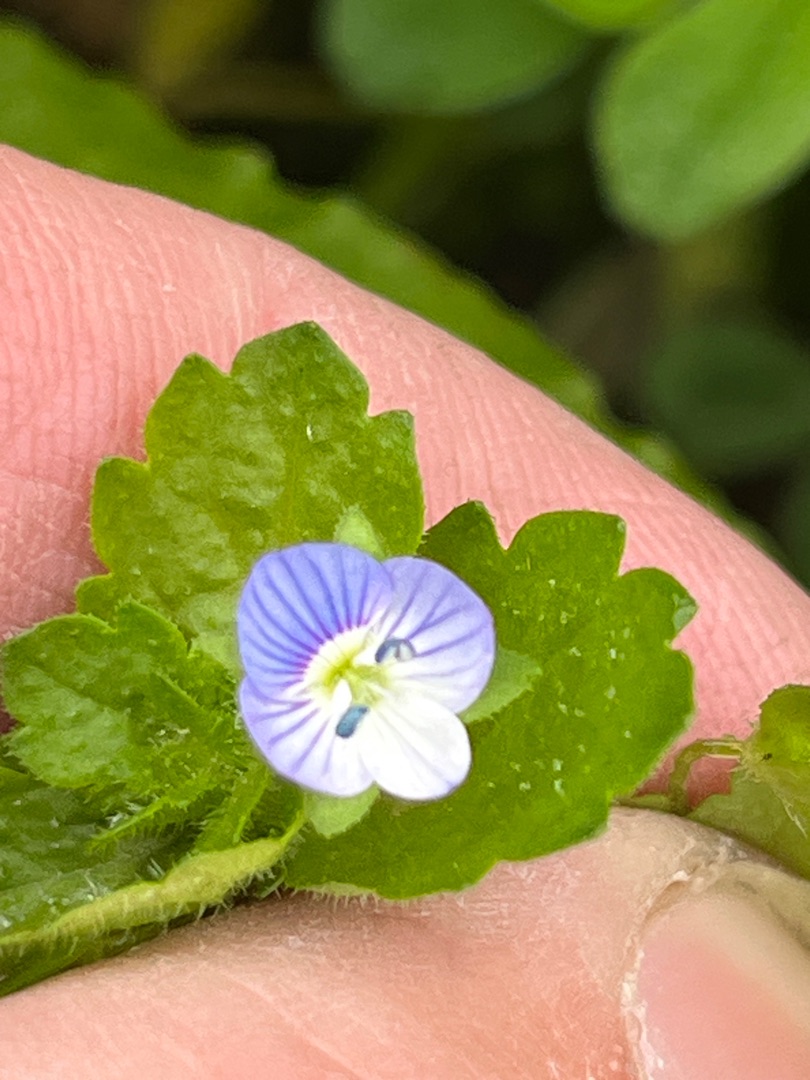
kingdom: Plantae
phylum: Tracheophyta
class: Magnoliopsida
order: Lamiales
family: Plantaginaceae
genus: Veronica
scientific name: Veronica persica
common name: Storkronet ærenpris
